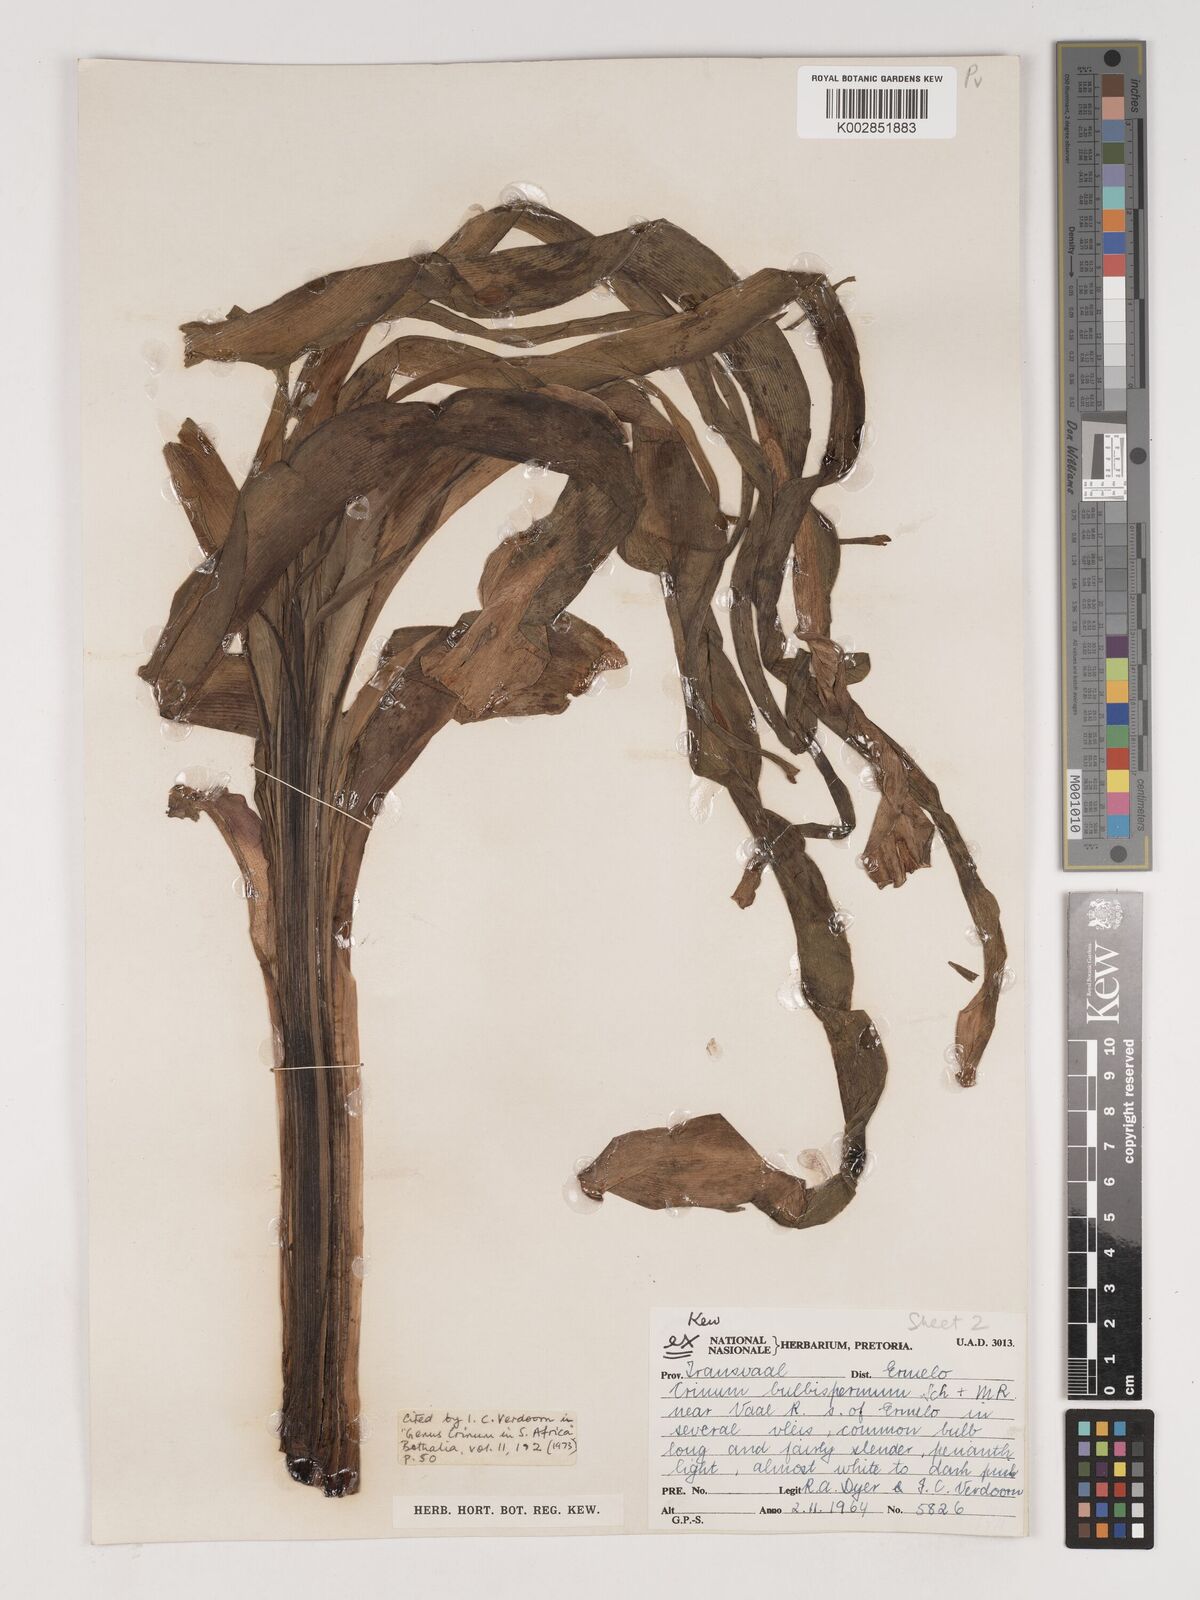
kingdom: Plantae
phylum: Tracheophyta
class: Liliopsida
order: Asparagales
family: Amaryllidaceae
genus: Crinum
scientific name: Crinum bulbispermum
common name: Hardy swamplily
